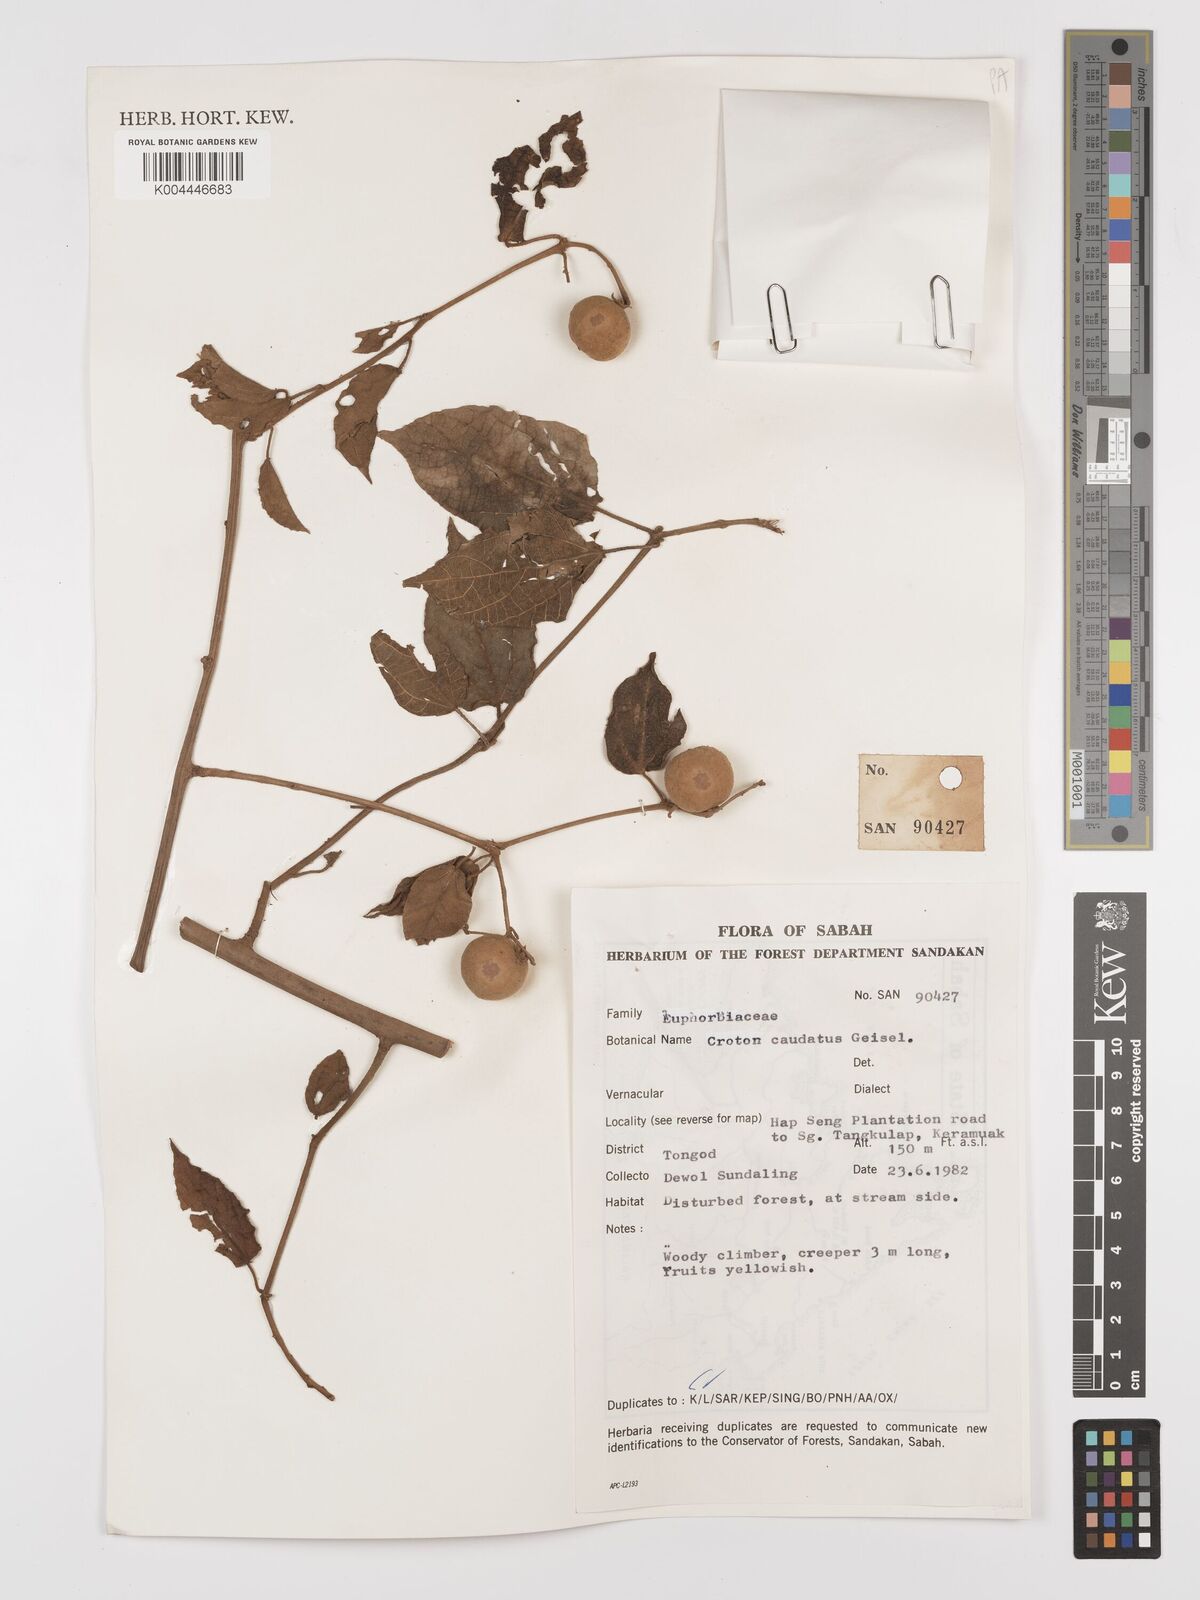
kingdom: Plantae
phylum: Tracheophyta
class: Magnoliopsida
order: Malpighiales
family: Euphorbiaceae
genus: Croton
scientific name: Croton caudatus
